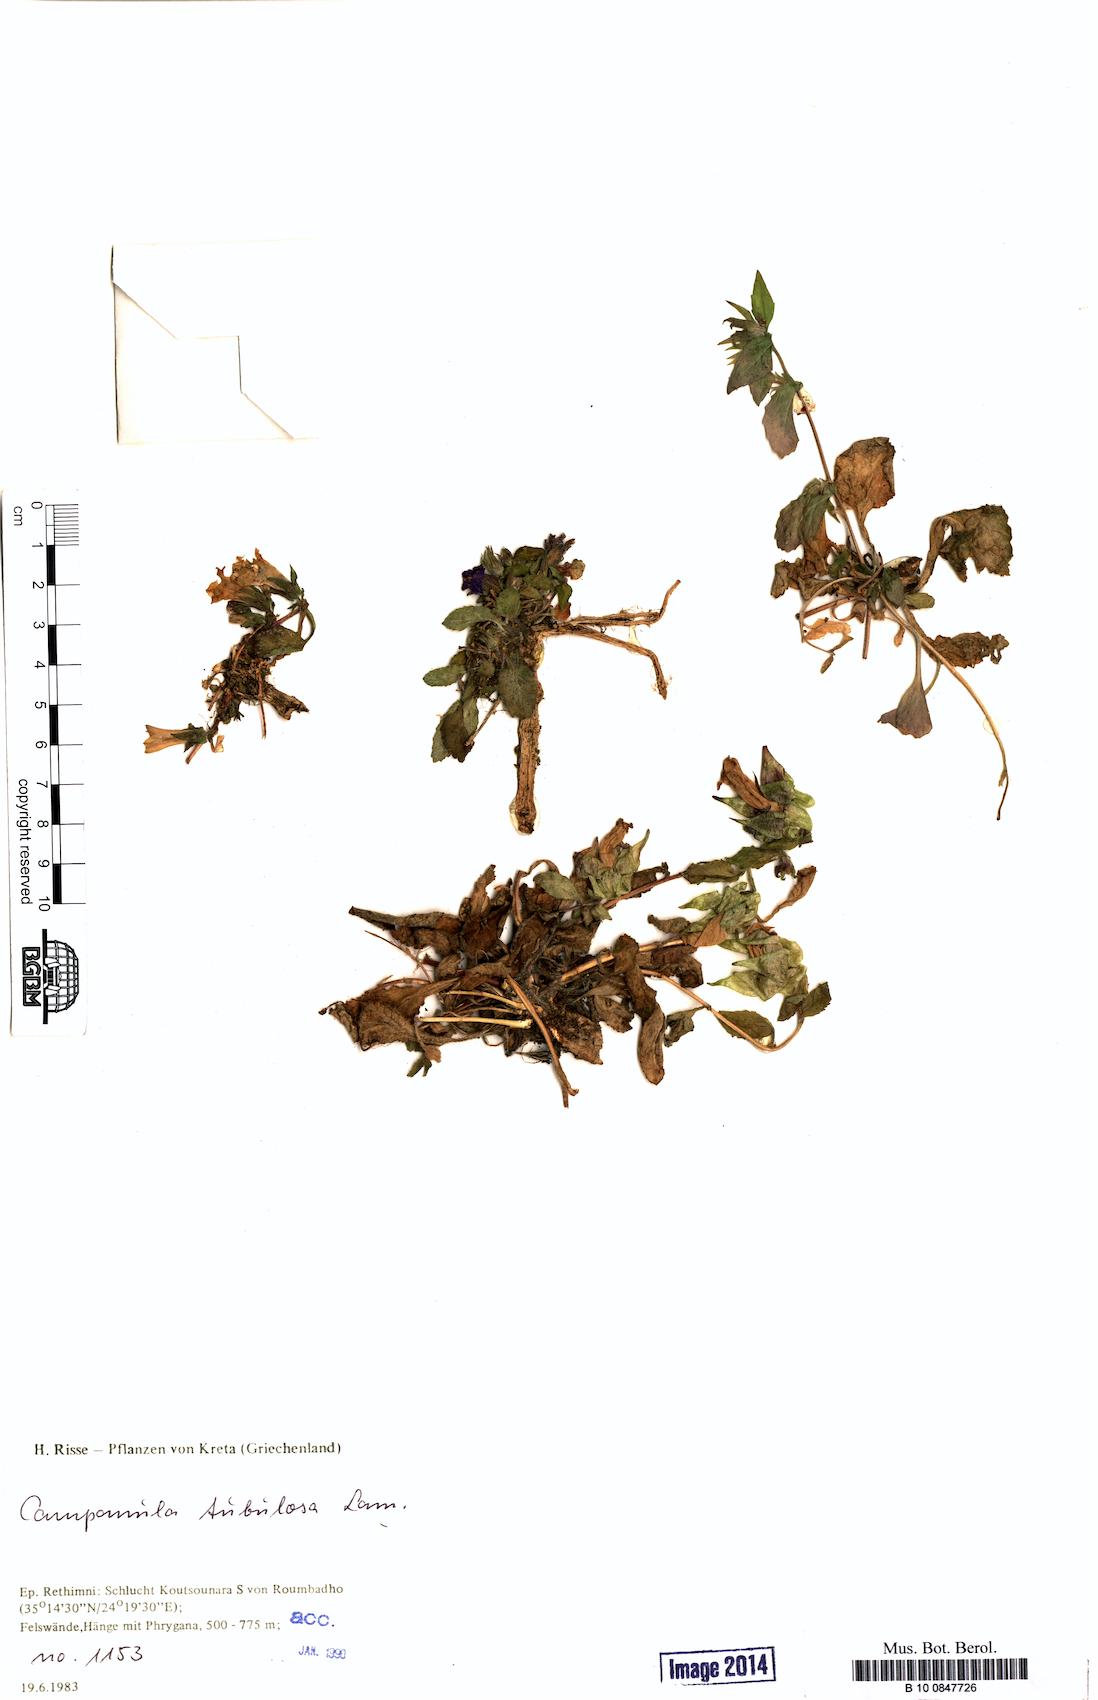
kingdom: Plantae
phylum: Tracheophyta
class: Magnoliopsida
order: Asterales
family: Campanulaceae
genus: Campanula
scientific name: Campanula tubulosa
